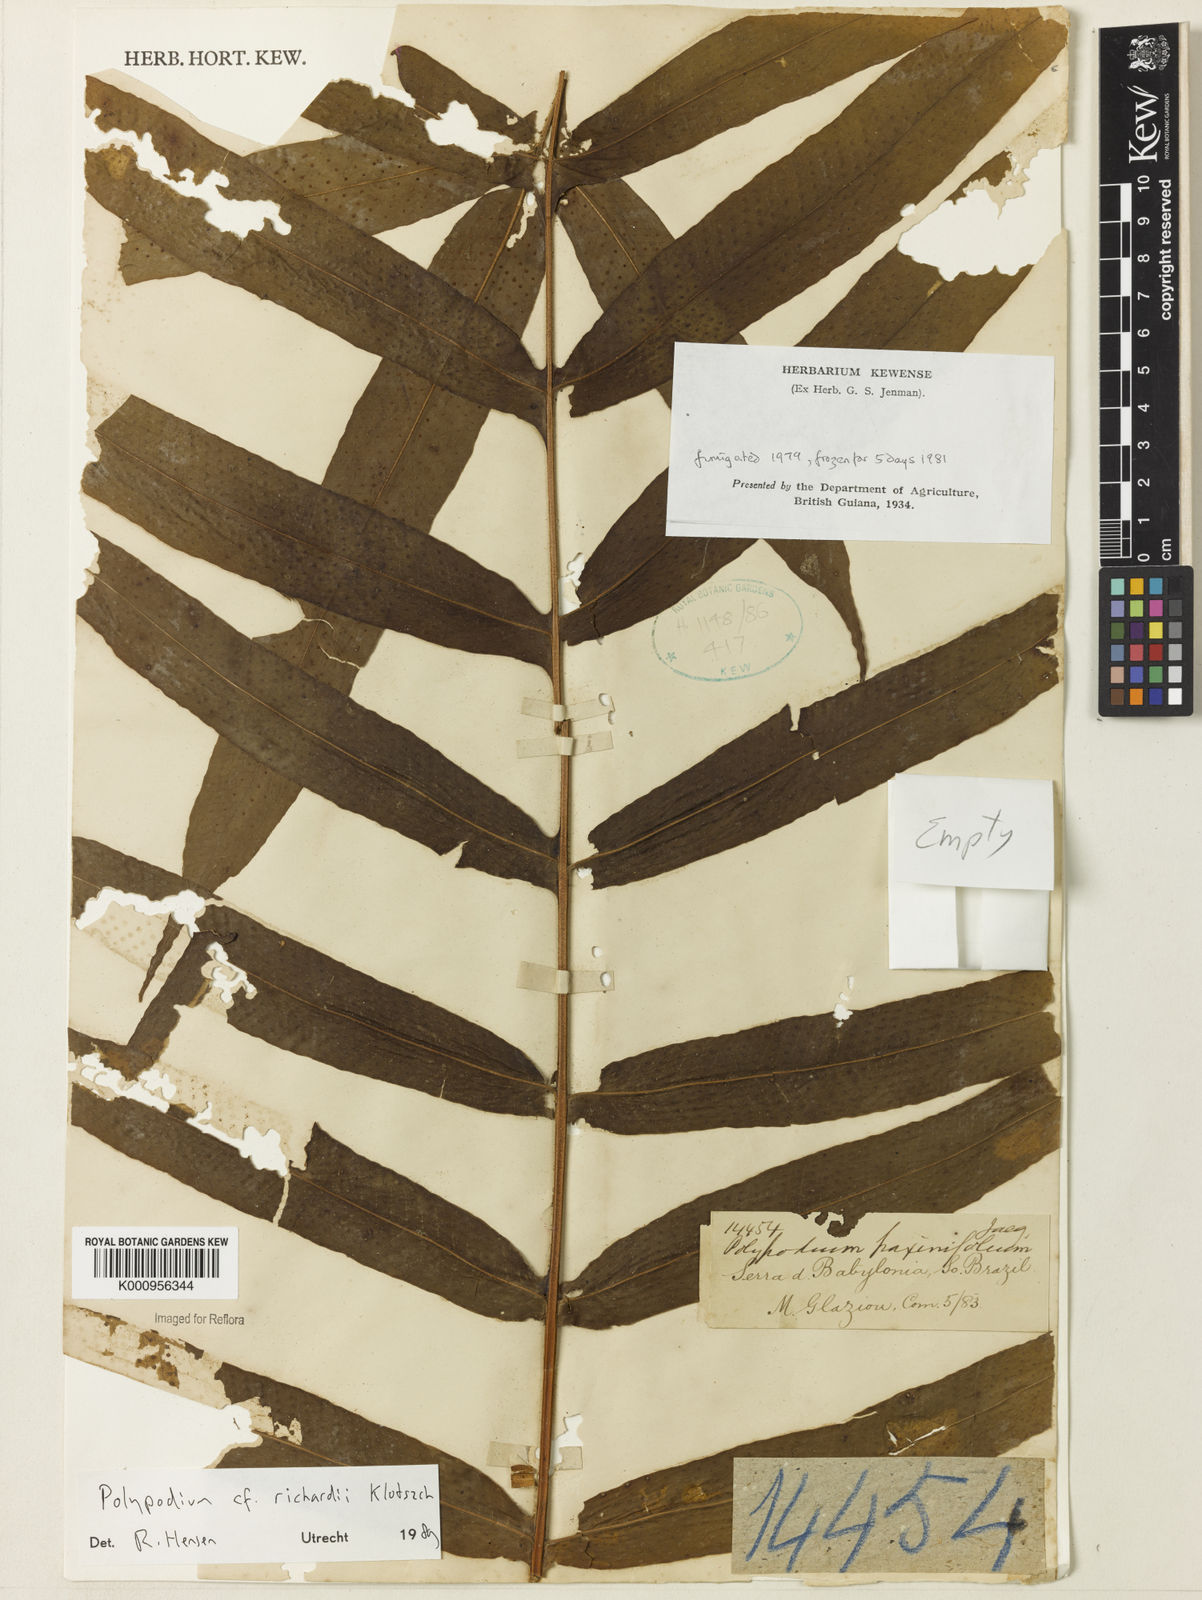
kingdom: Plantae
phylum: Tracheophyta
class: Polypodiopsida
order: Polypodiales
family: Polypodiaceae
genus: Serpocaulon
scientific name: Serpocaulon richardii
